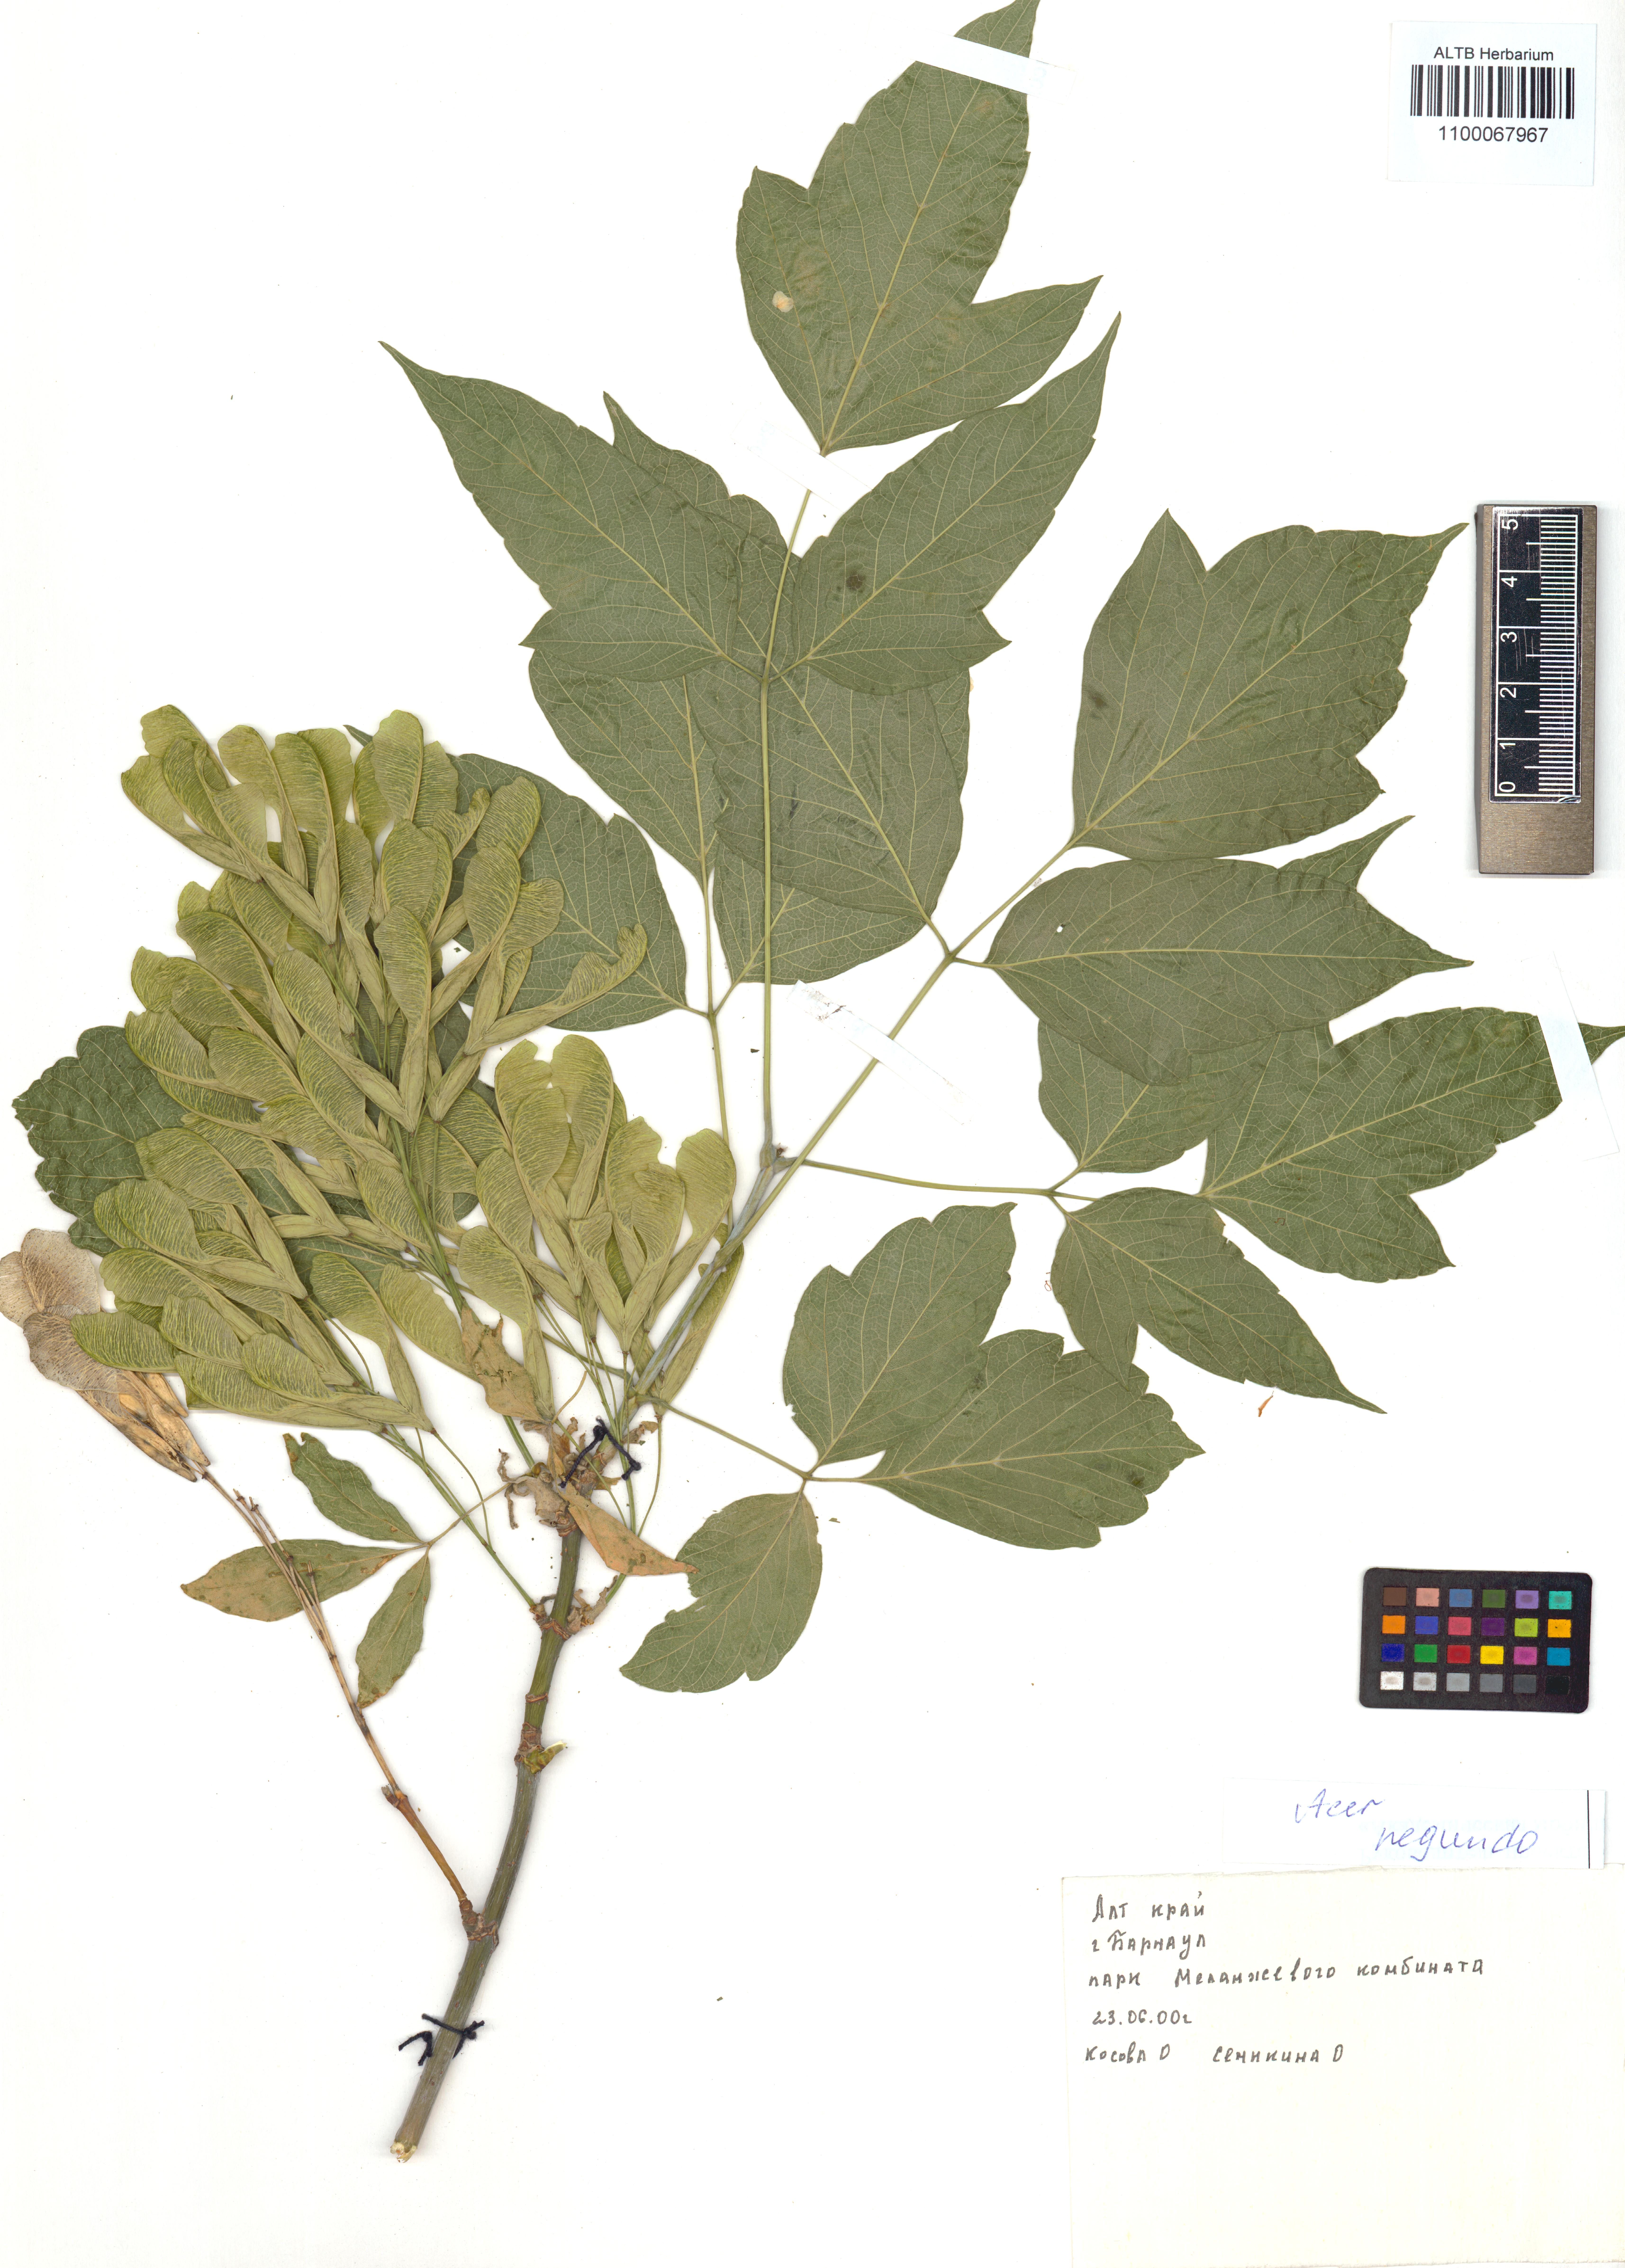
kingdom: Plantae
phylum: Tracheophyta
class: Magnoliopsida
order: Sapindales
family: Sapindaceae
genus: Acer
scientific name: Acer negundo
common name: Ashleaf maple
